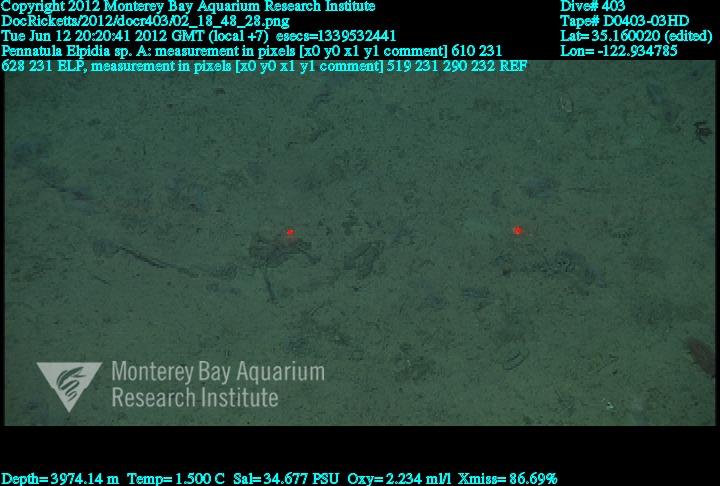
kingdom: Animalia
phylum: Cnidaria
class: Anthozoa
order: Scleralcyonacea
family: Pennatulidae
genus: Pennatula
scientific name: Pennatula
